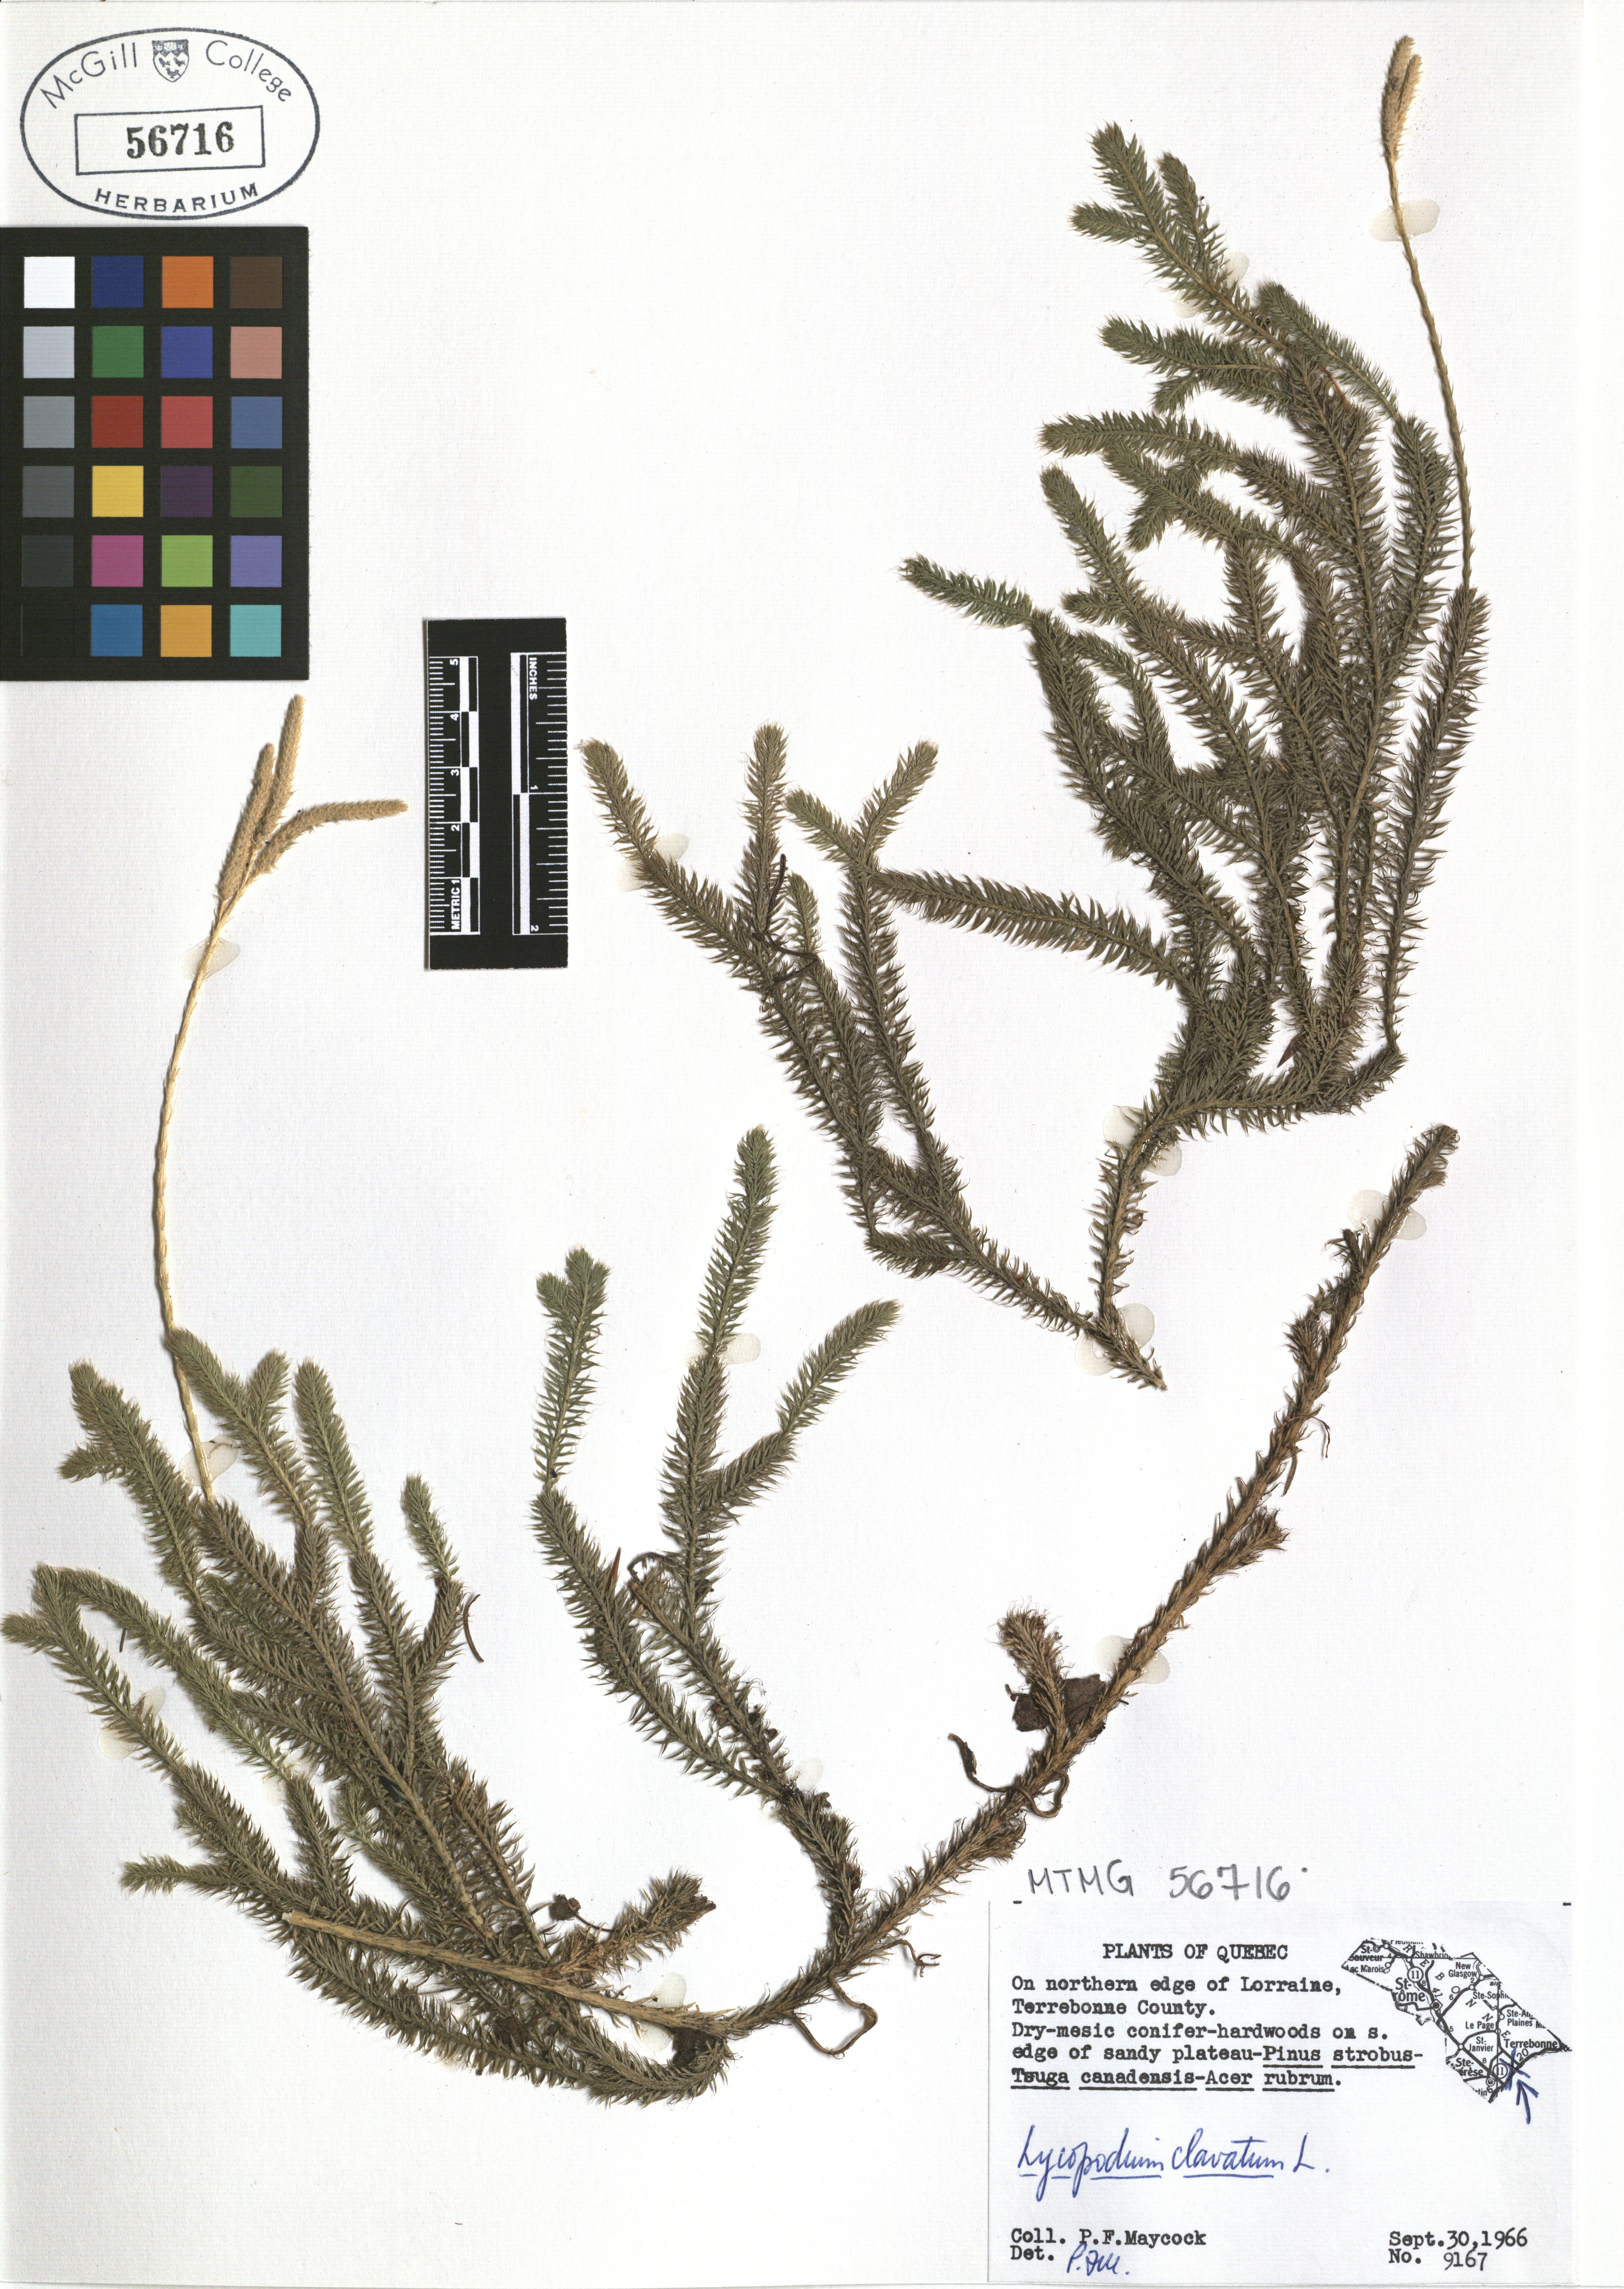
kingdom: Plantae
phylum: Tracheophyta
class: Lycopodiopsida
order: Lycopodiales
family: Lycopodiaceae
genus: Lycopodium
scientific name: Lycopodium clavatum
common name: Stag's-horn clubmoss
